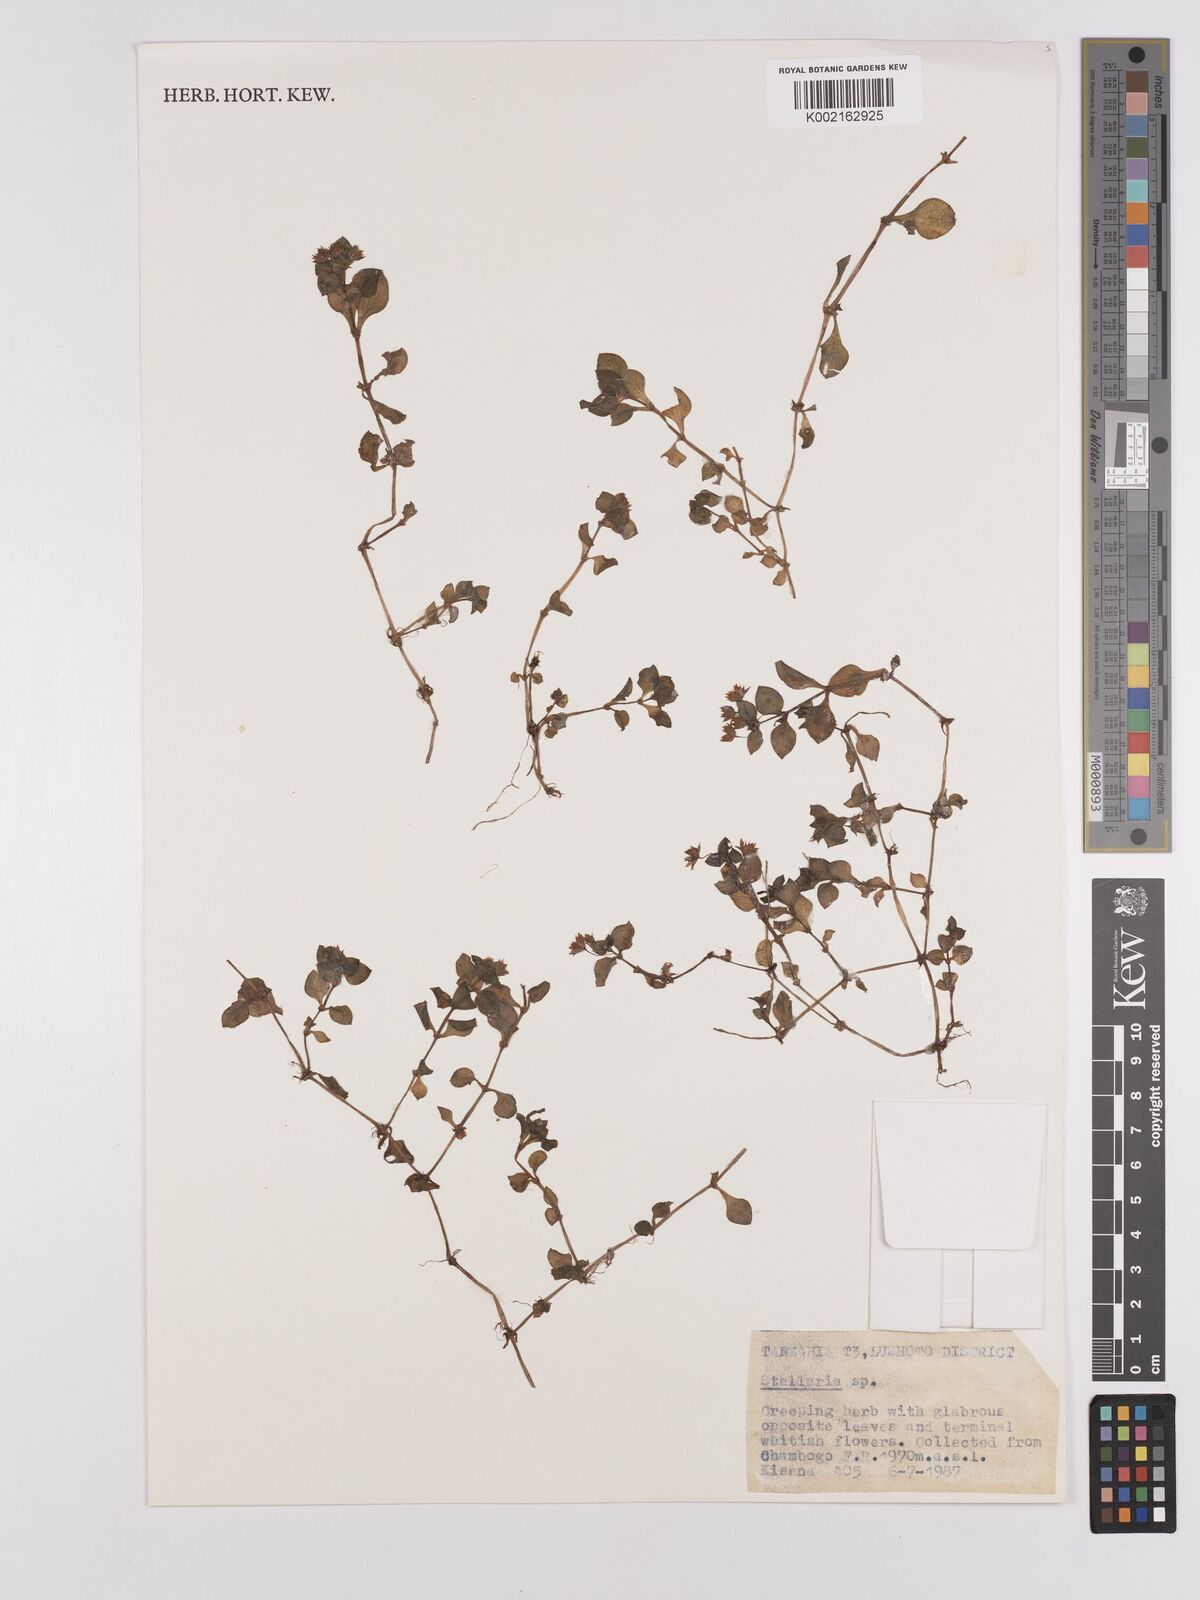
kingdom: Plantae
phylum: Tracheophyta
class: Magnoliopsida
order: Saxifragales
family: Crassulaceae
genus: Crassula
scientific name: Crassula alsinoides
